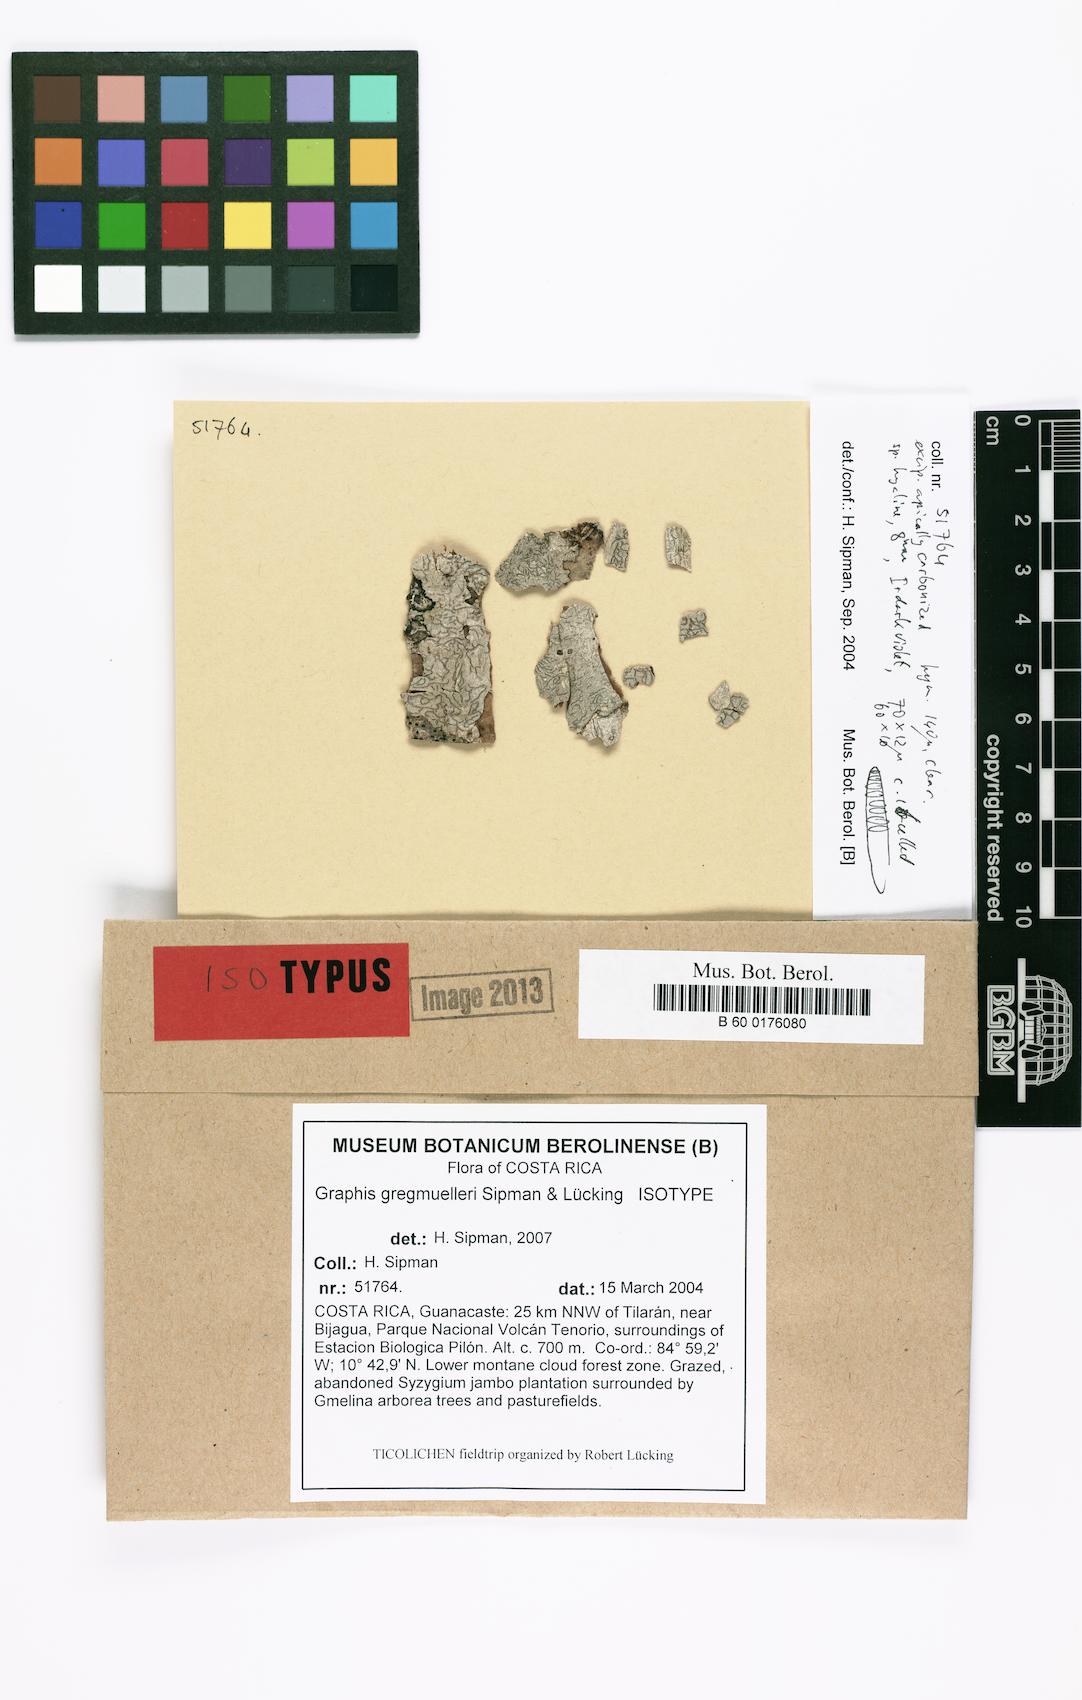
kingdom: Fungi
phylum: Ascomycota
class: Lecanoromycetes
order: Ostropales
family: Graphidaceae
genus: Allographa
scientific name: Allographa gregmuelleri
